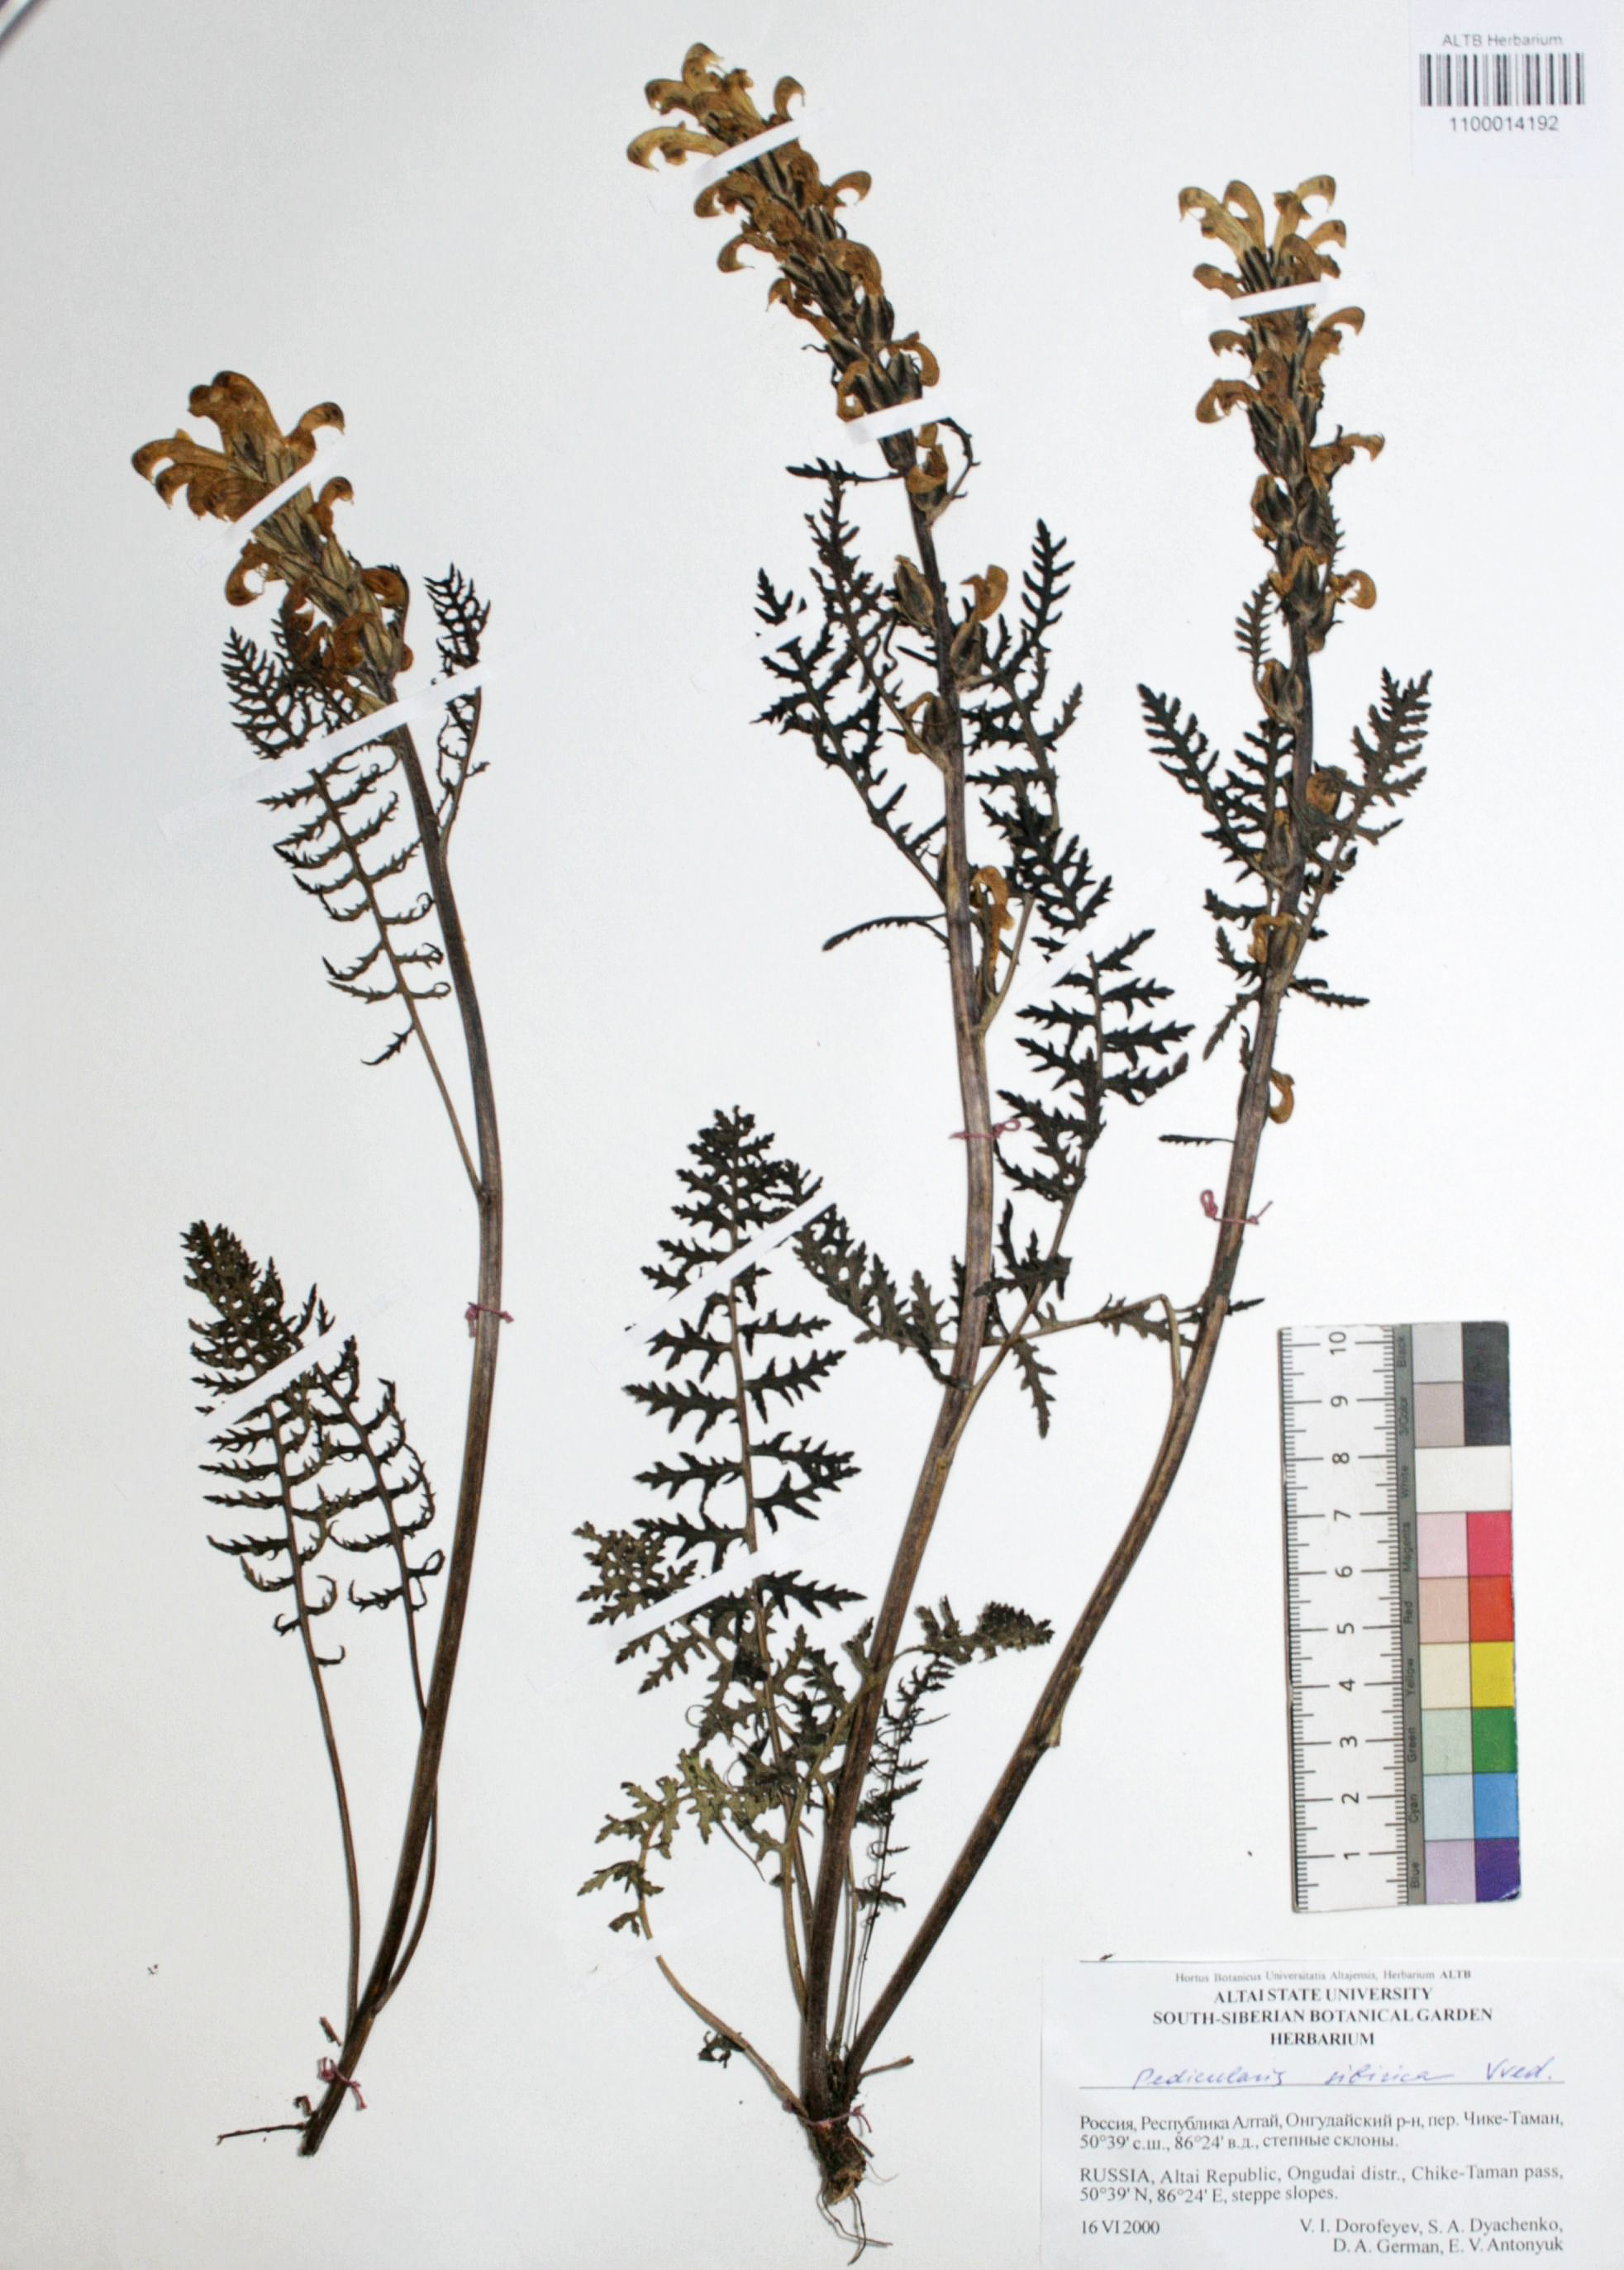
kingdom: Plantae
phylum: Tracheophyta
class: Magnoliopsida
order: Lamiales
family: Orobanchaceae
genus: Pedicularis
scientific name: Pedicularis sibirica
